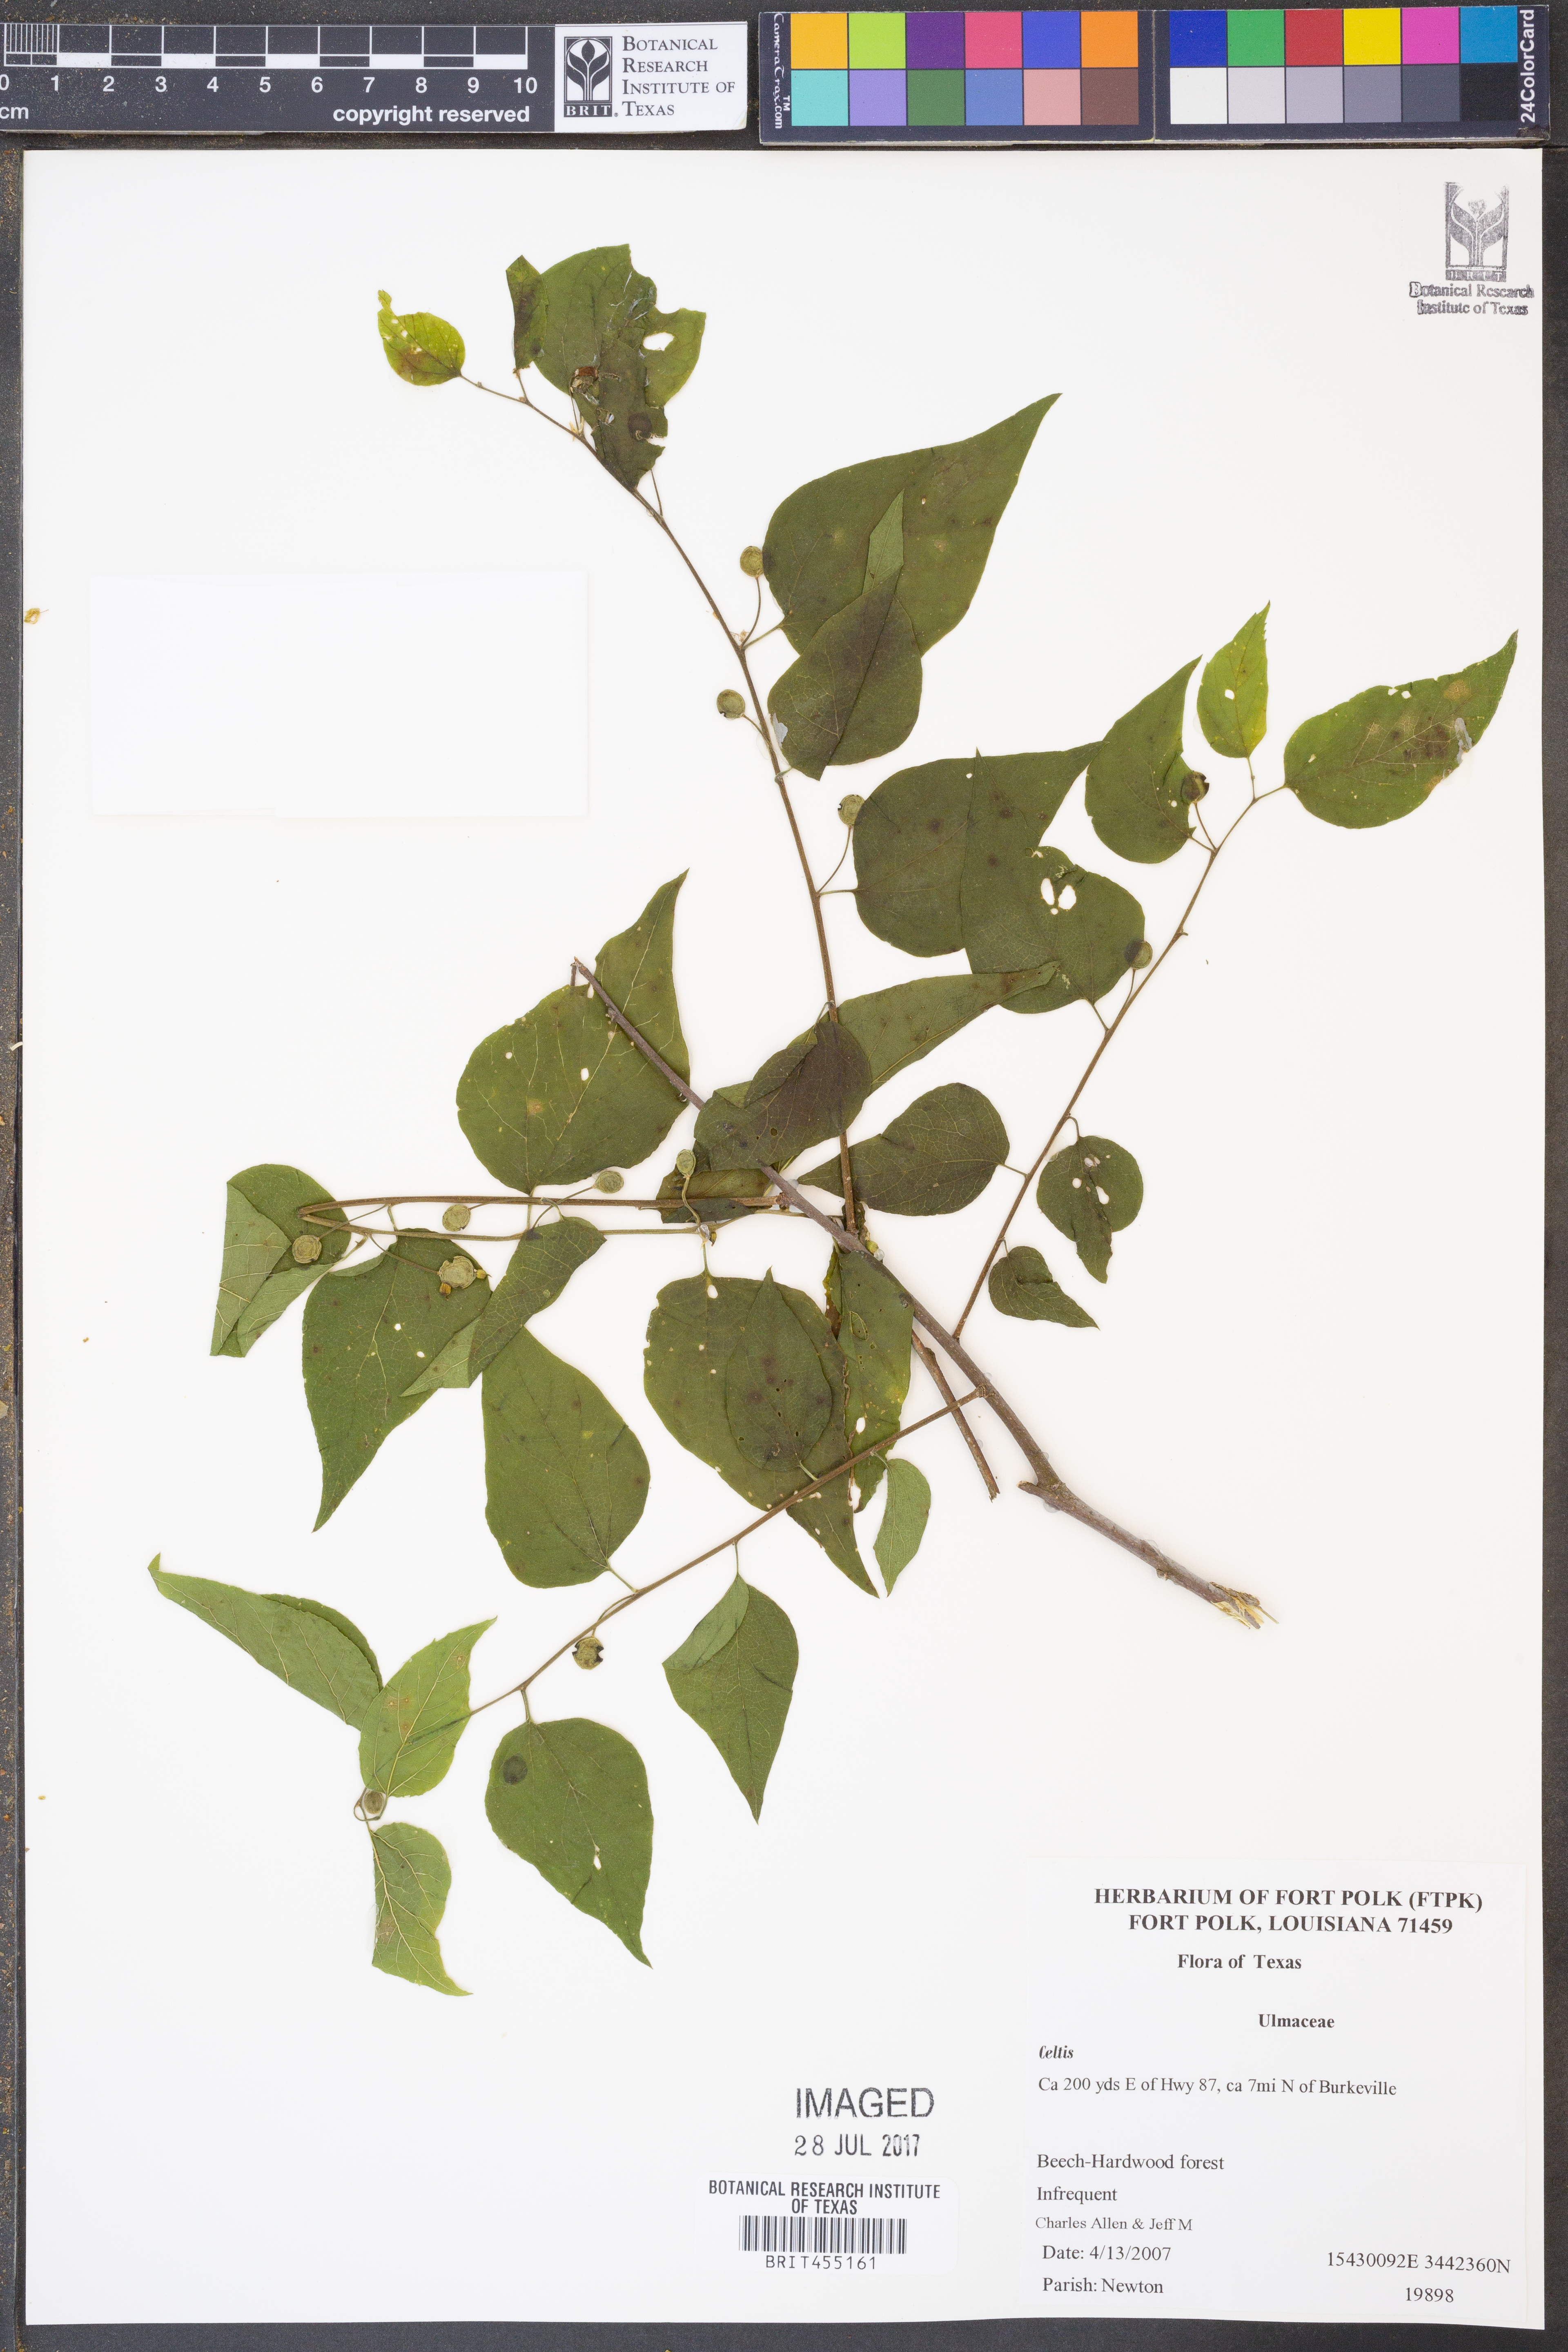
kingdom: Plantae
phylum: Tracheophyta
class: Magnoliopsida
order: Rosales
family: Cannabaceae
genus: Celtis
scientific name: Celtis
